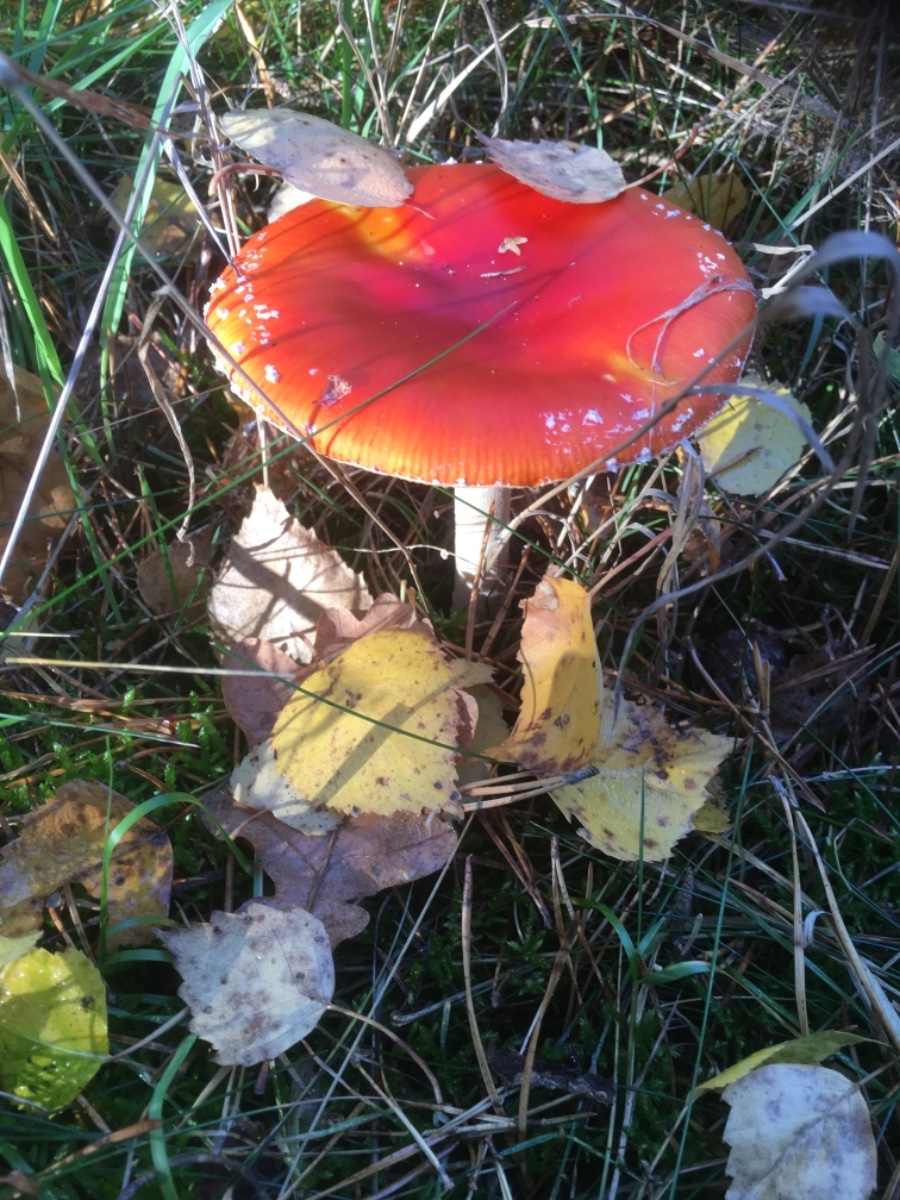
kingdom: Fungi
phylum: Basidiomycota
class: Agaricomycetes
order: Agaricales
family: Amanitaceae
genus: Amanita
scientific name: Amanita muscaria
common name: rød fluesvamp
